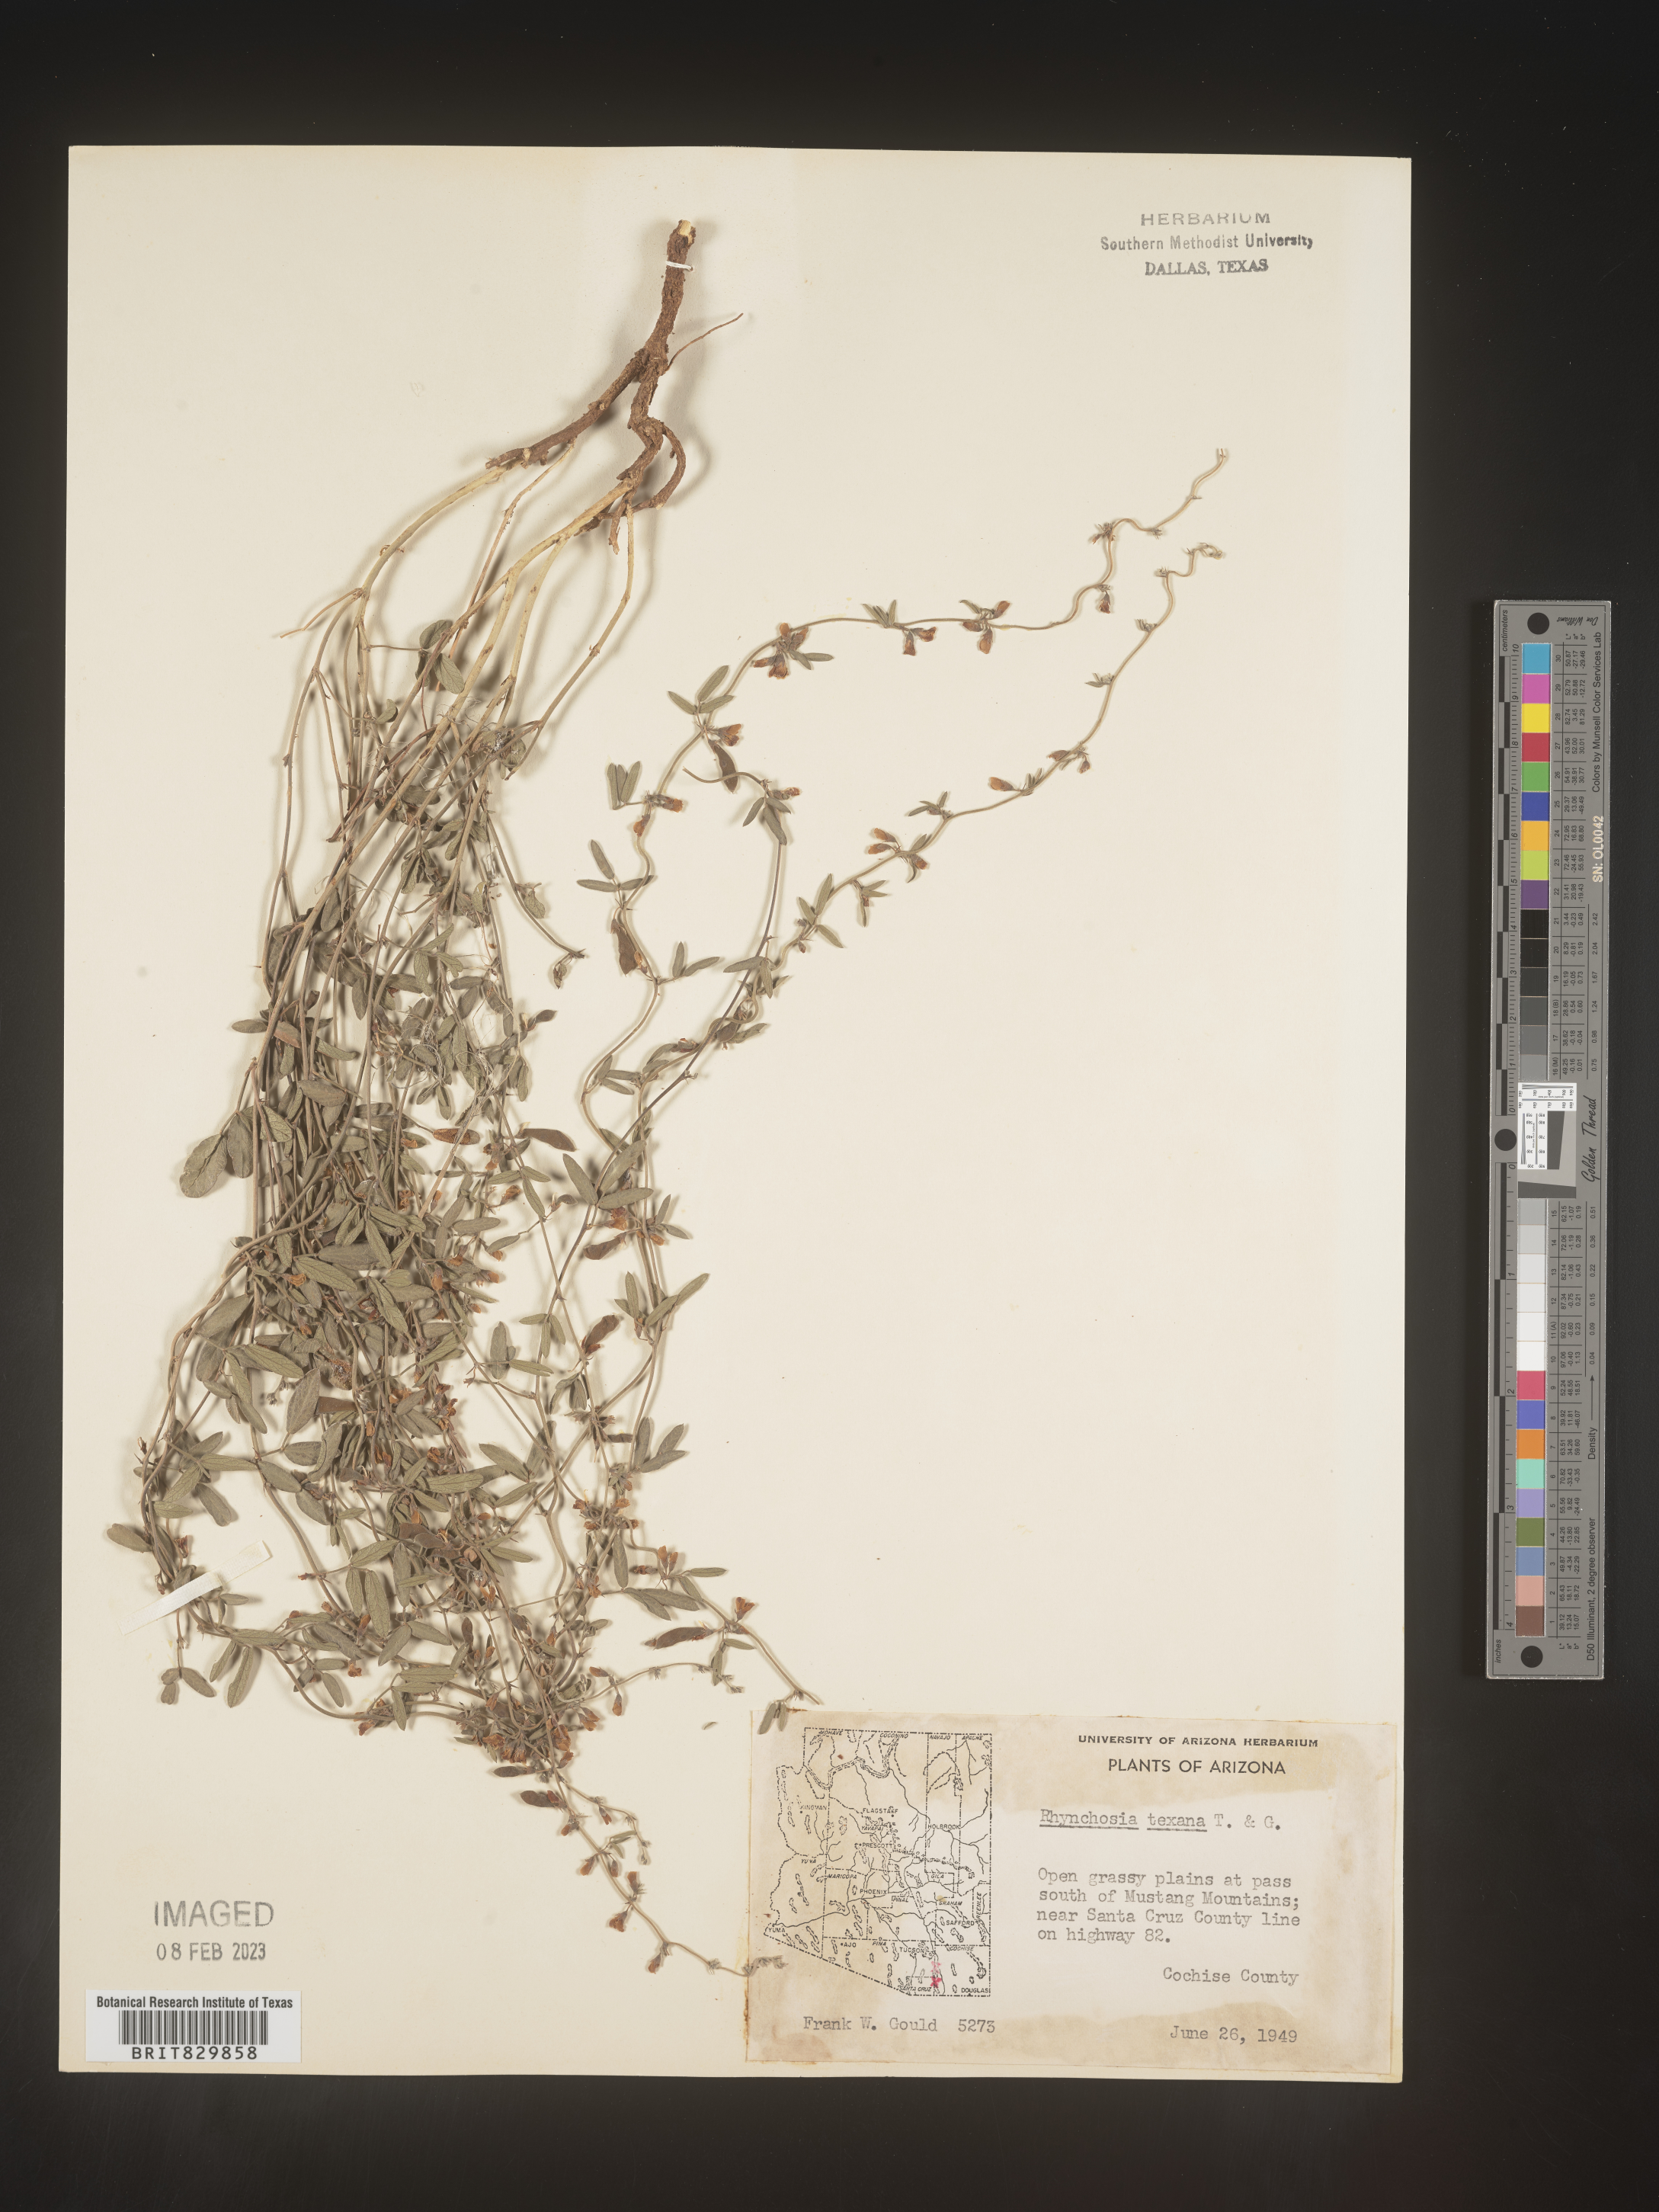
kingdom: Plantae
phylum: Tracheophyta
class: Magnoliopsida
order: Fabales
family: Fabaceae
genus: Rhynchosia
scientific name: Rhynchosia senna
